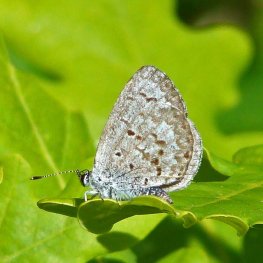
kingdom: Animalia
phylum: Arthropoda
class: Insecta
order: Lepidoptera
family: Lycaenidae
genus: Celastrina
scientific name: Celastrina lucia
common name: Northern Spring Azure
